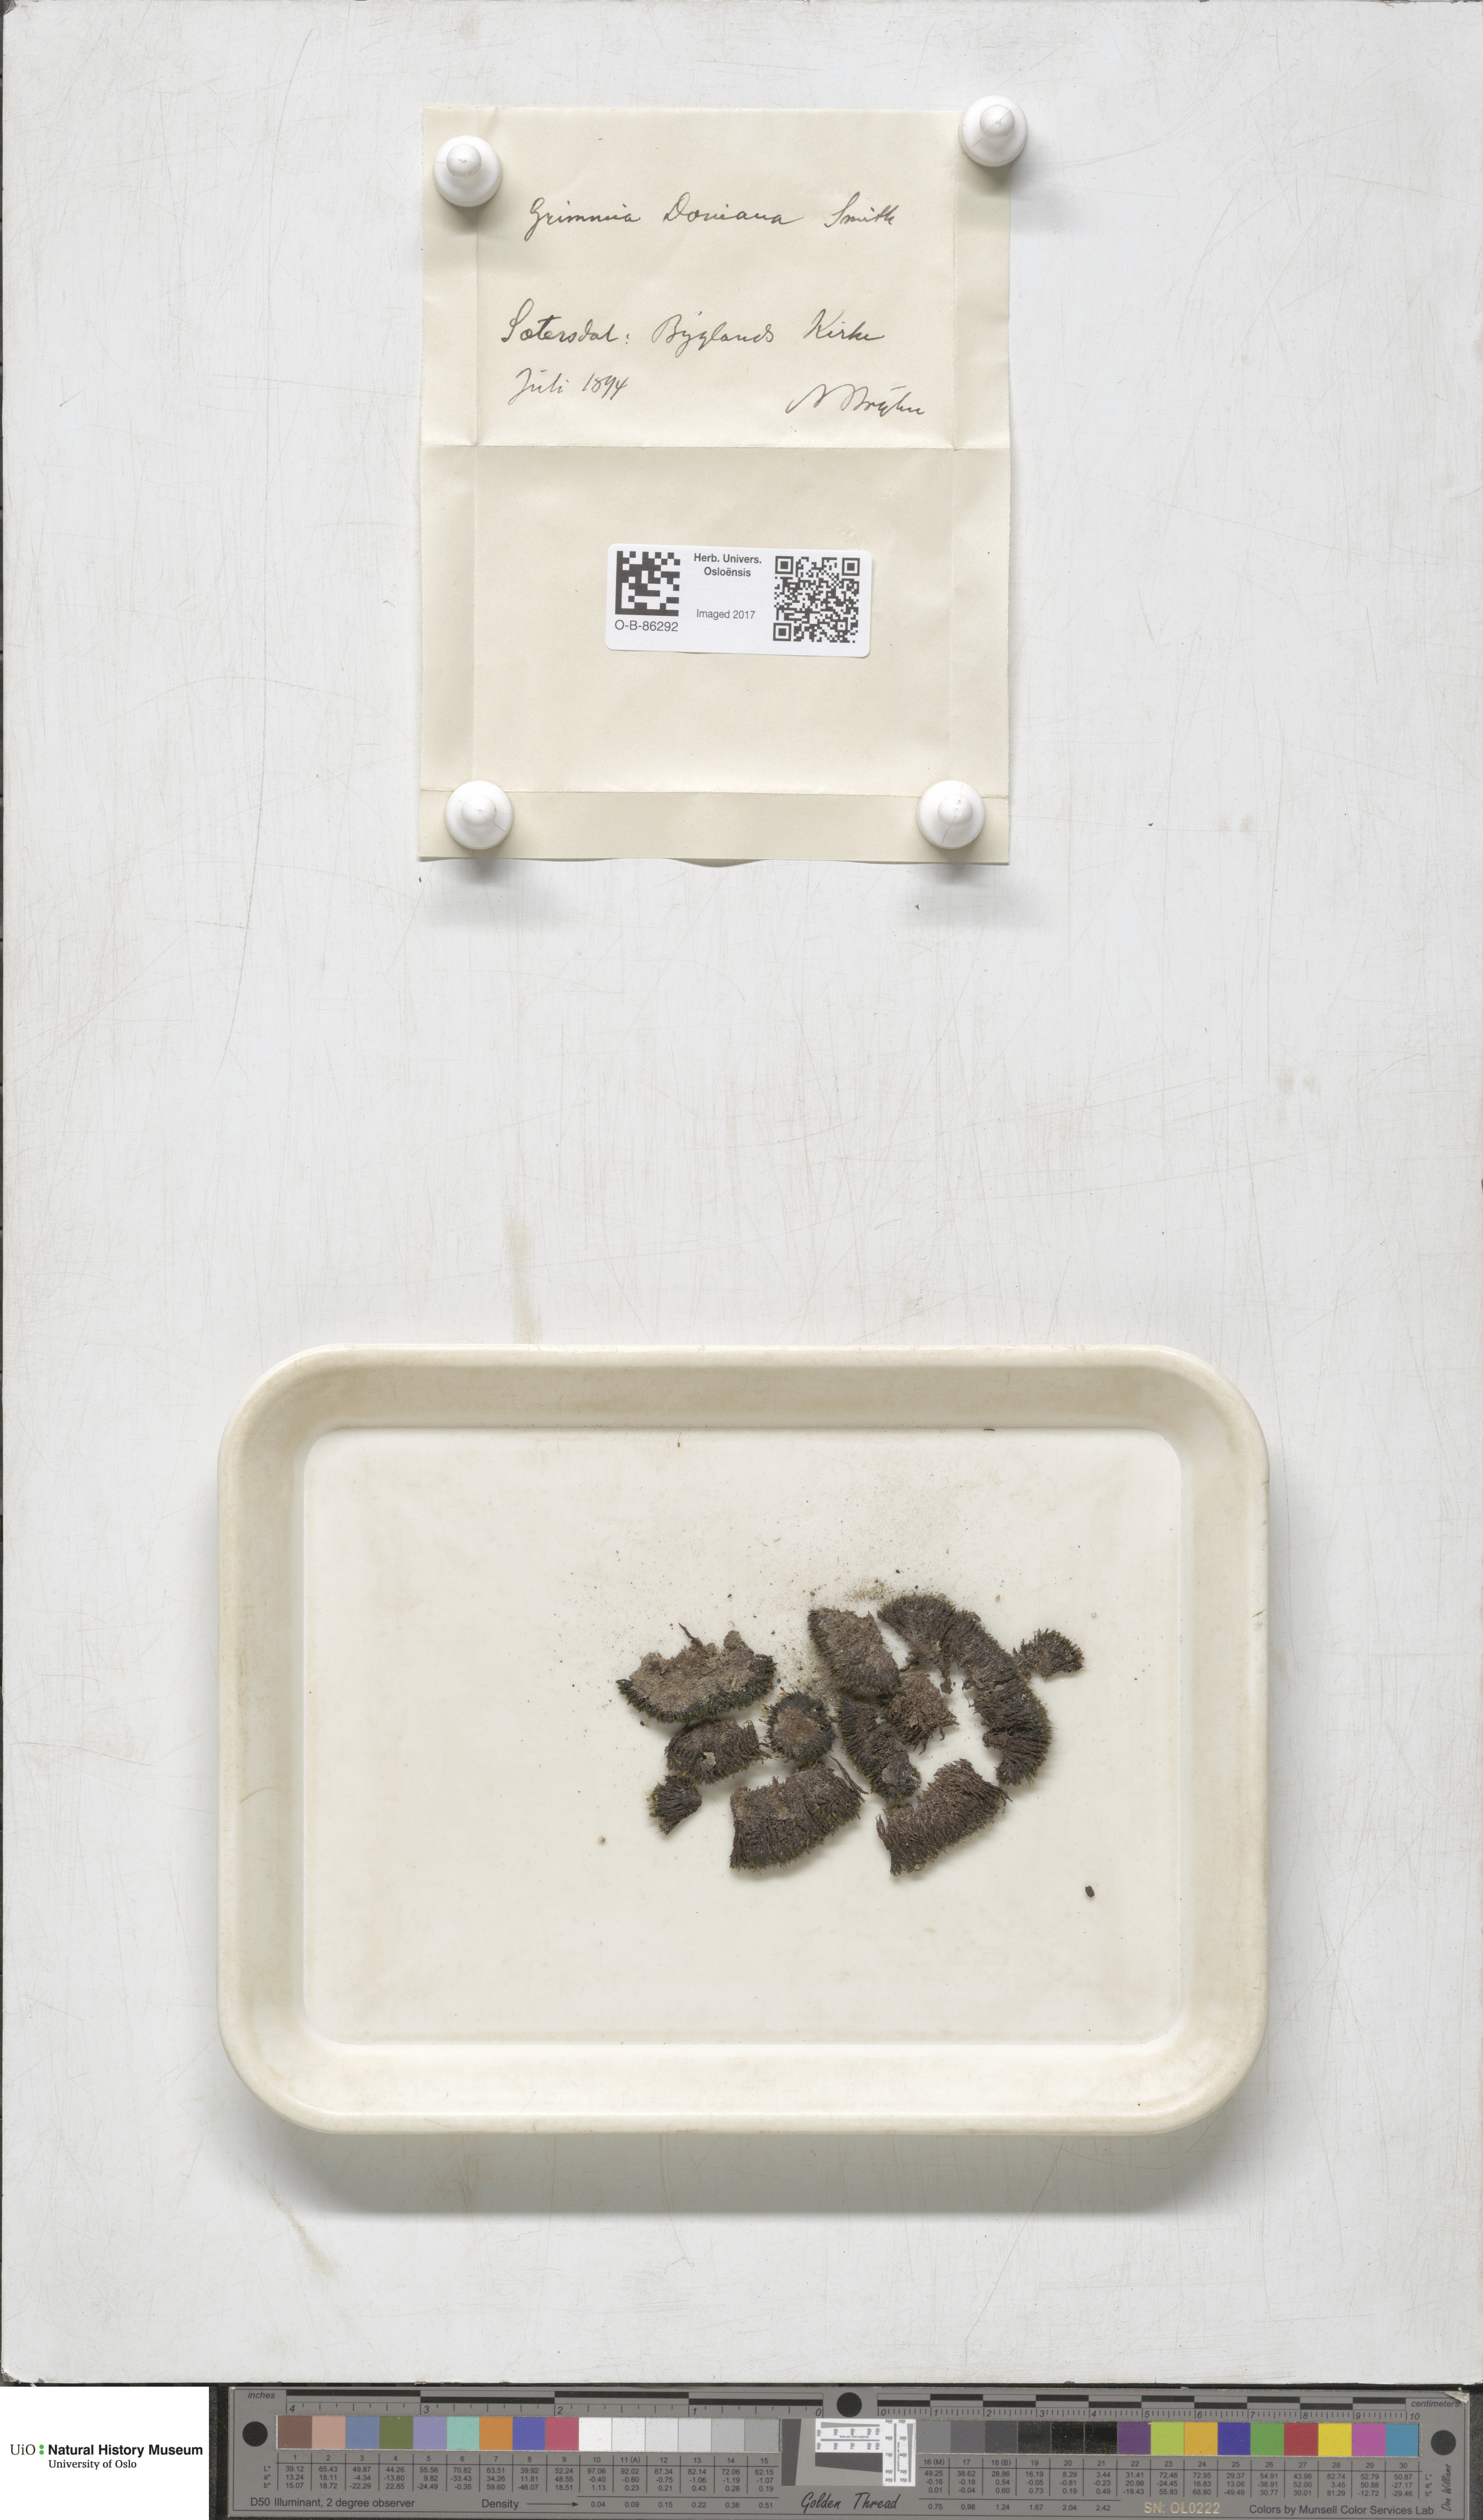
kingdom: Plantae
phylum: Bryophyta
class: Bryopsida
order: Grimmiales
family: Grimmiaceae
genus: Grimmia
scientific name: Grimmia donniana
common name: Donn's grimmia
